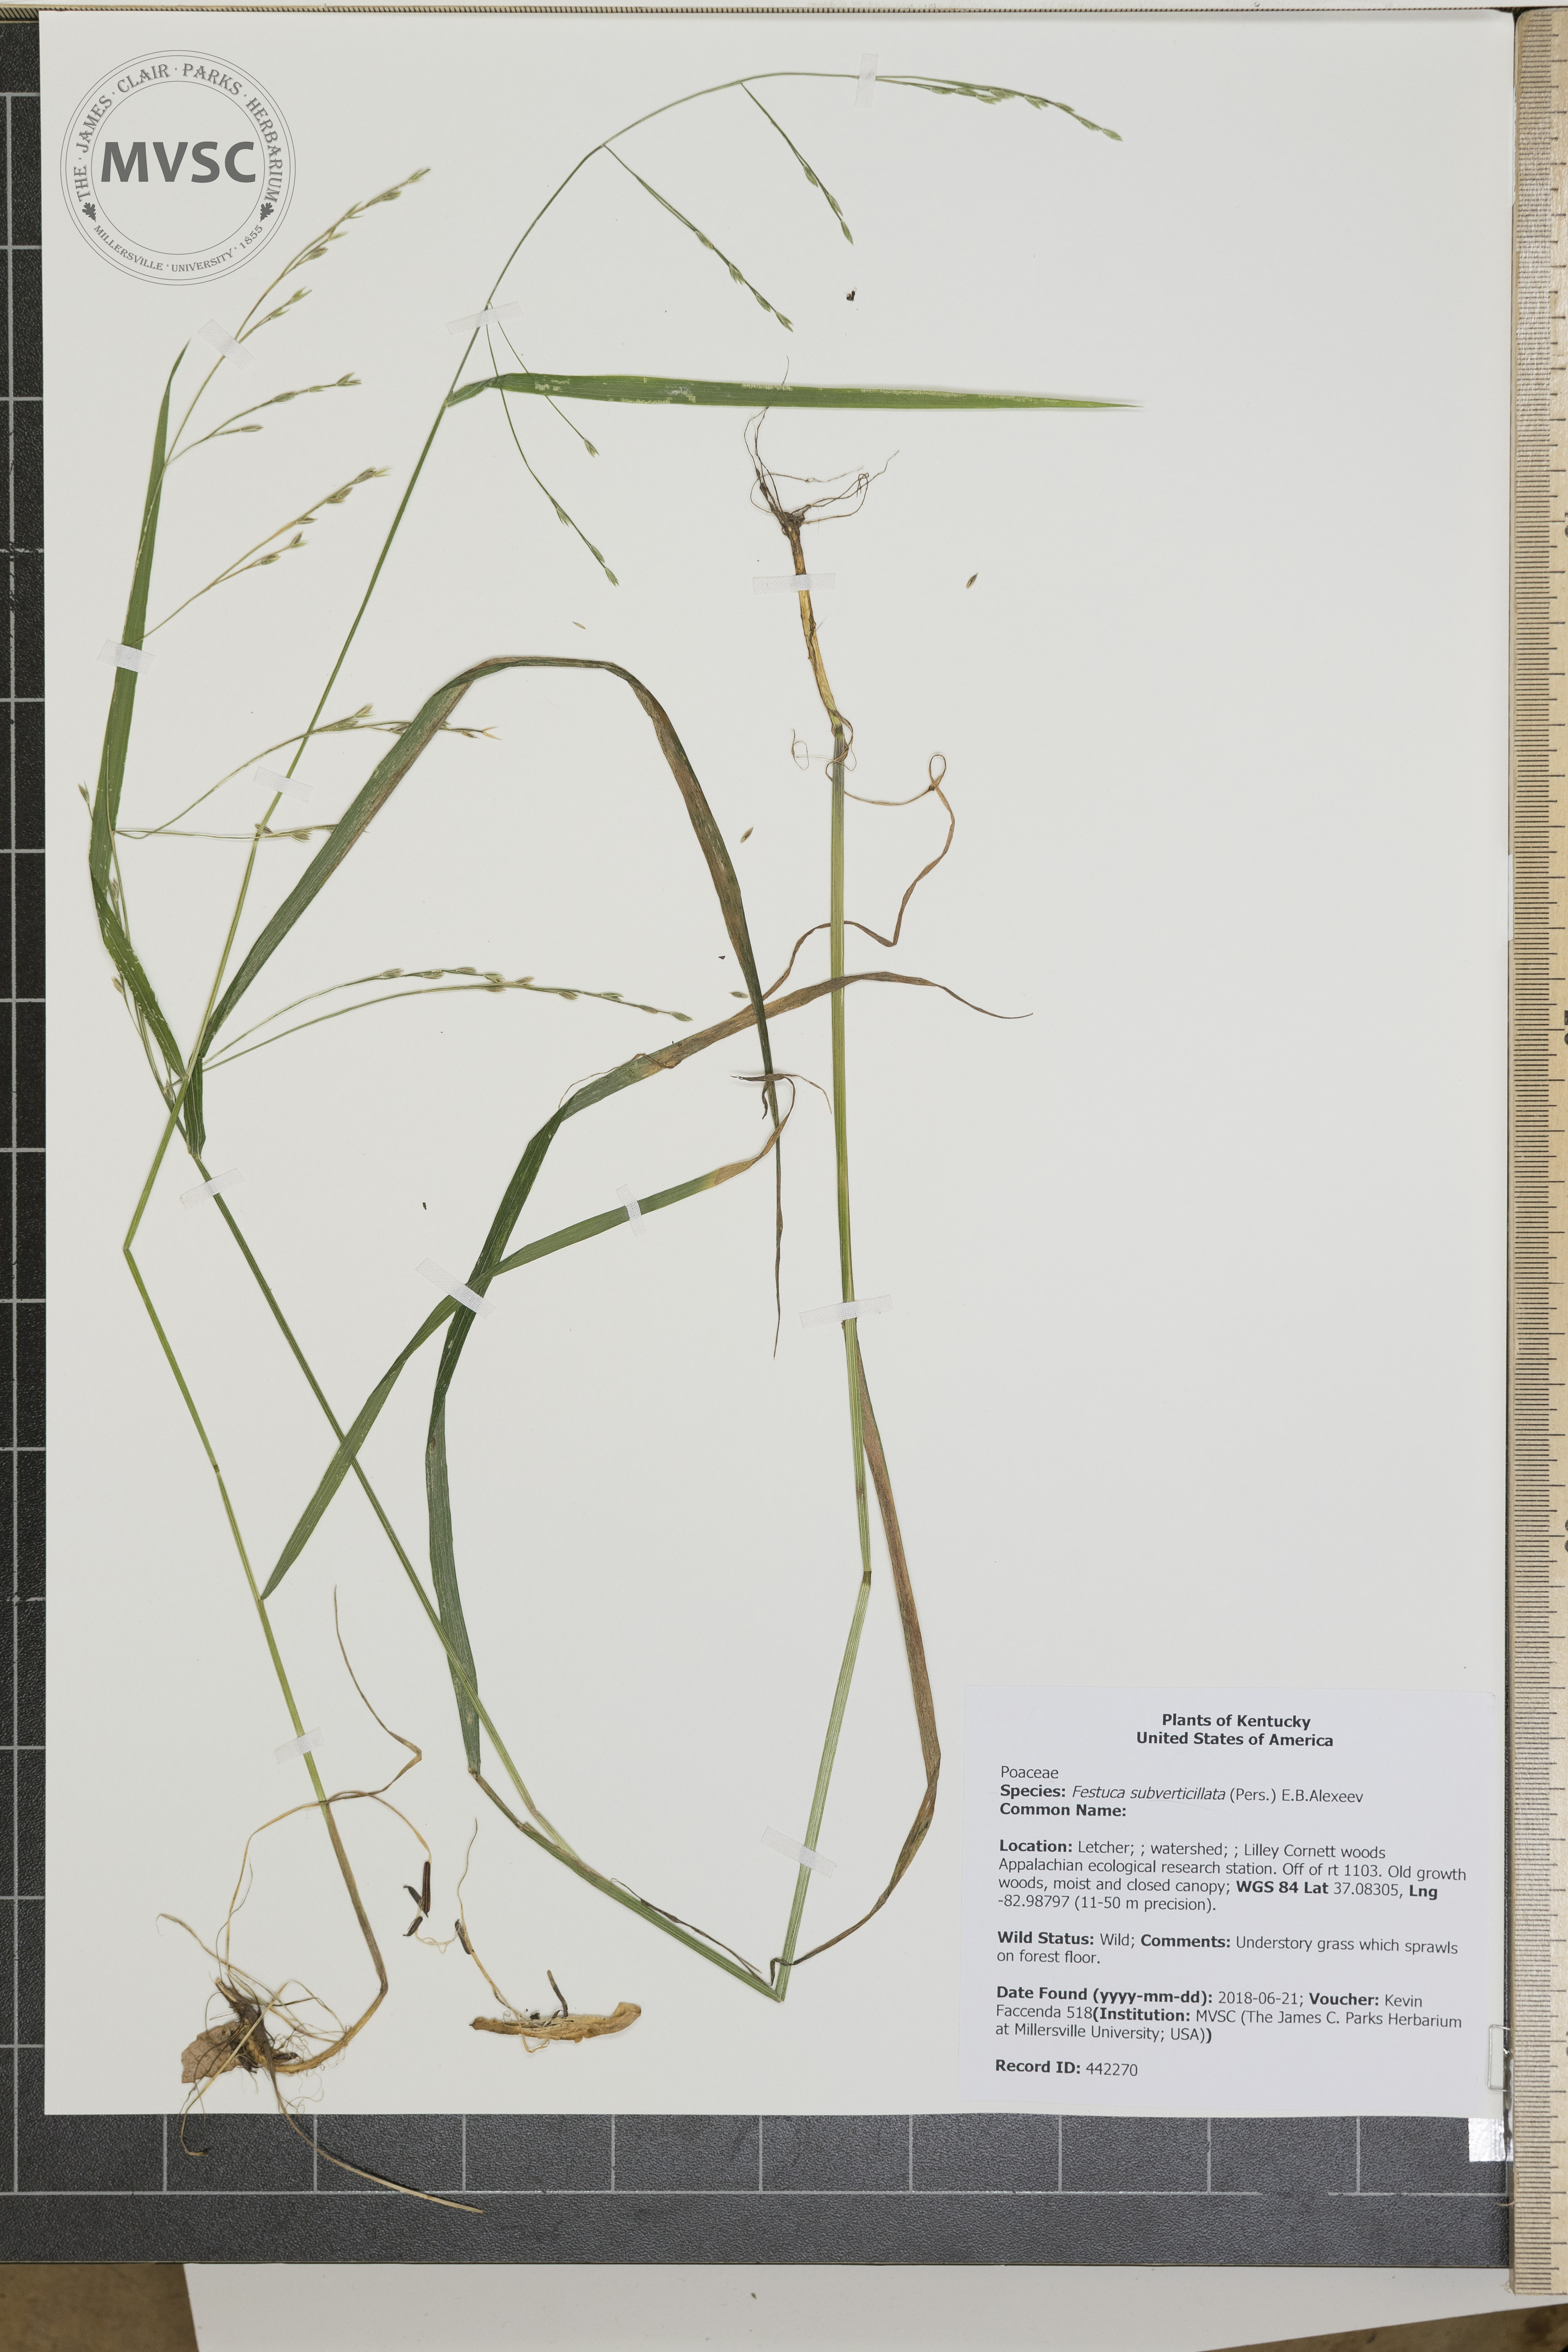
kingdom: Plantae
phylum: Tracheophyta
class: Liliopsida
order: Poales
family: Poaceae
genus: Festuca
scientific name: Festuca subverticillata
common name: Nodding fescue
